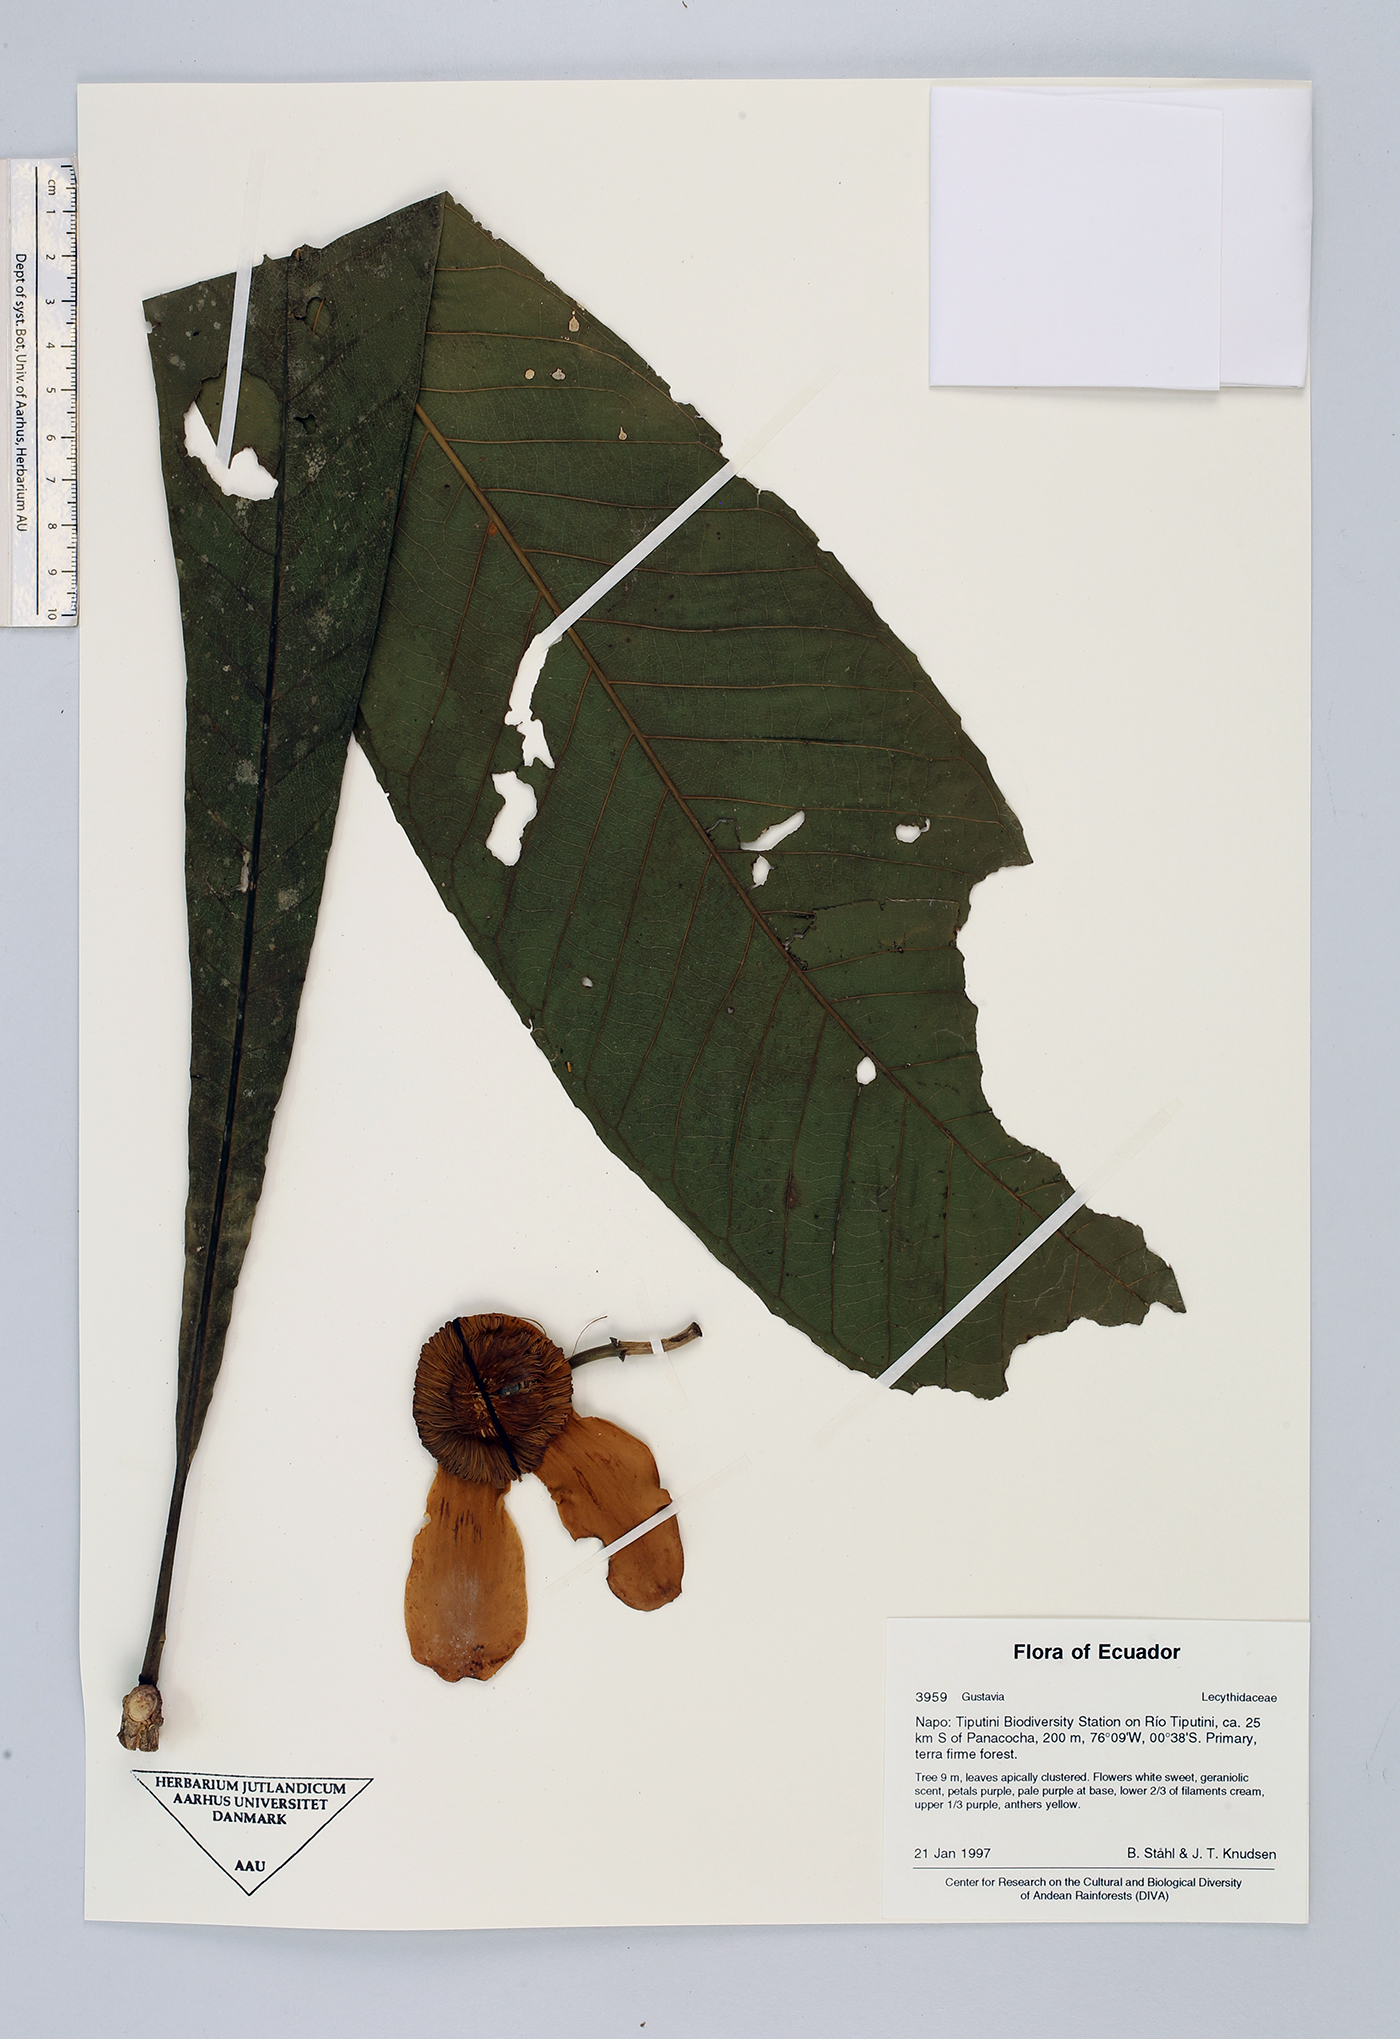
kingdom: Plantae
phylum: Tracheophyta
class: Magnoliopsida
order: Ericales
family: Lecythidaceae
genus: Gustavia
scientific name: Gustavia
